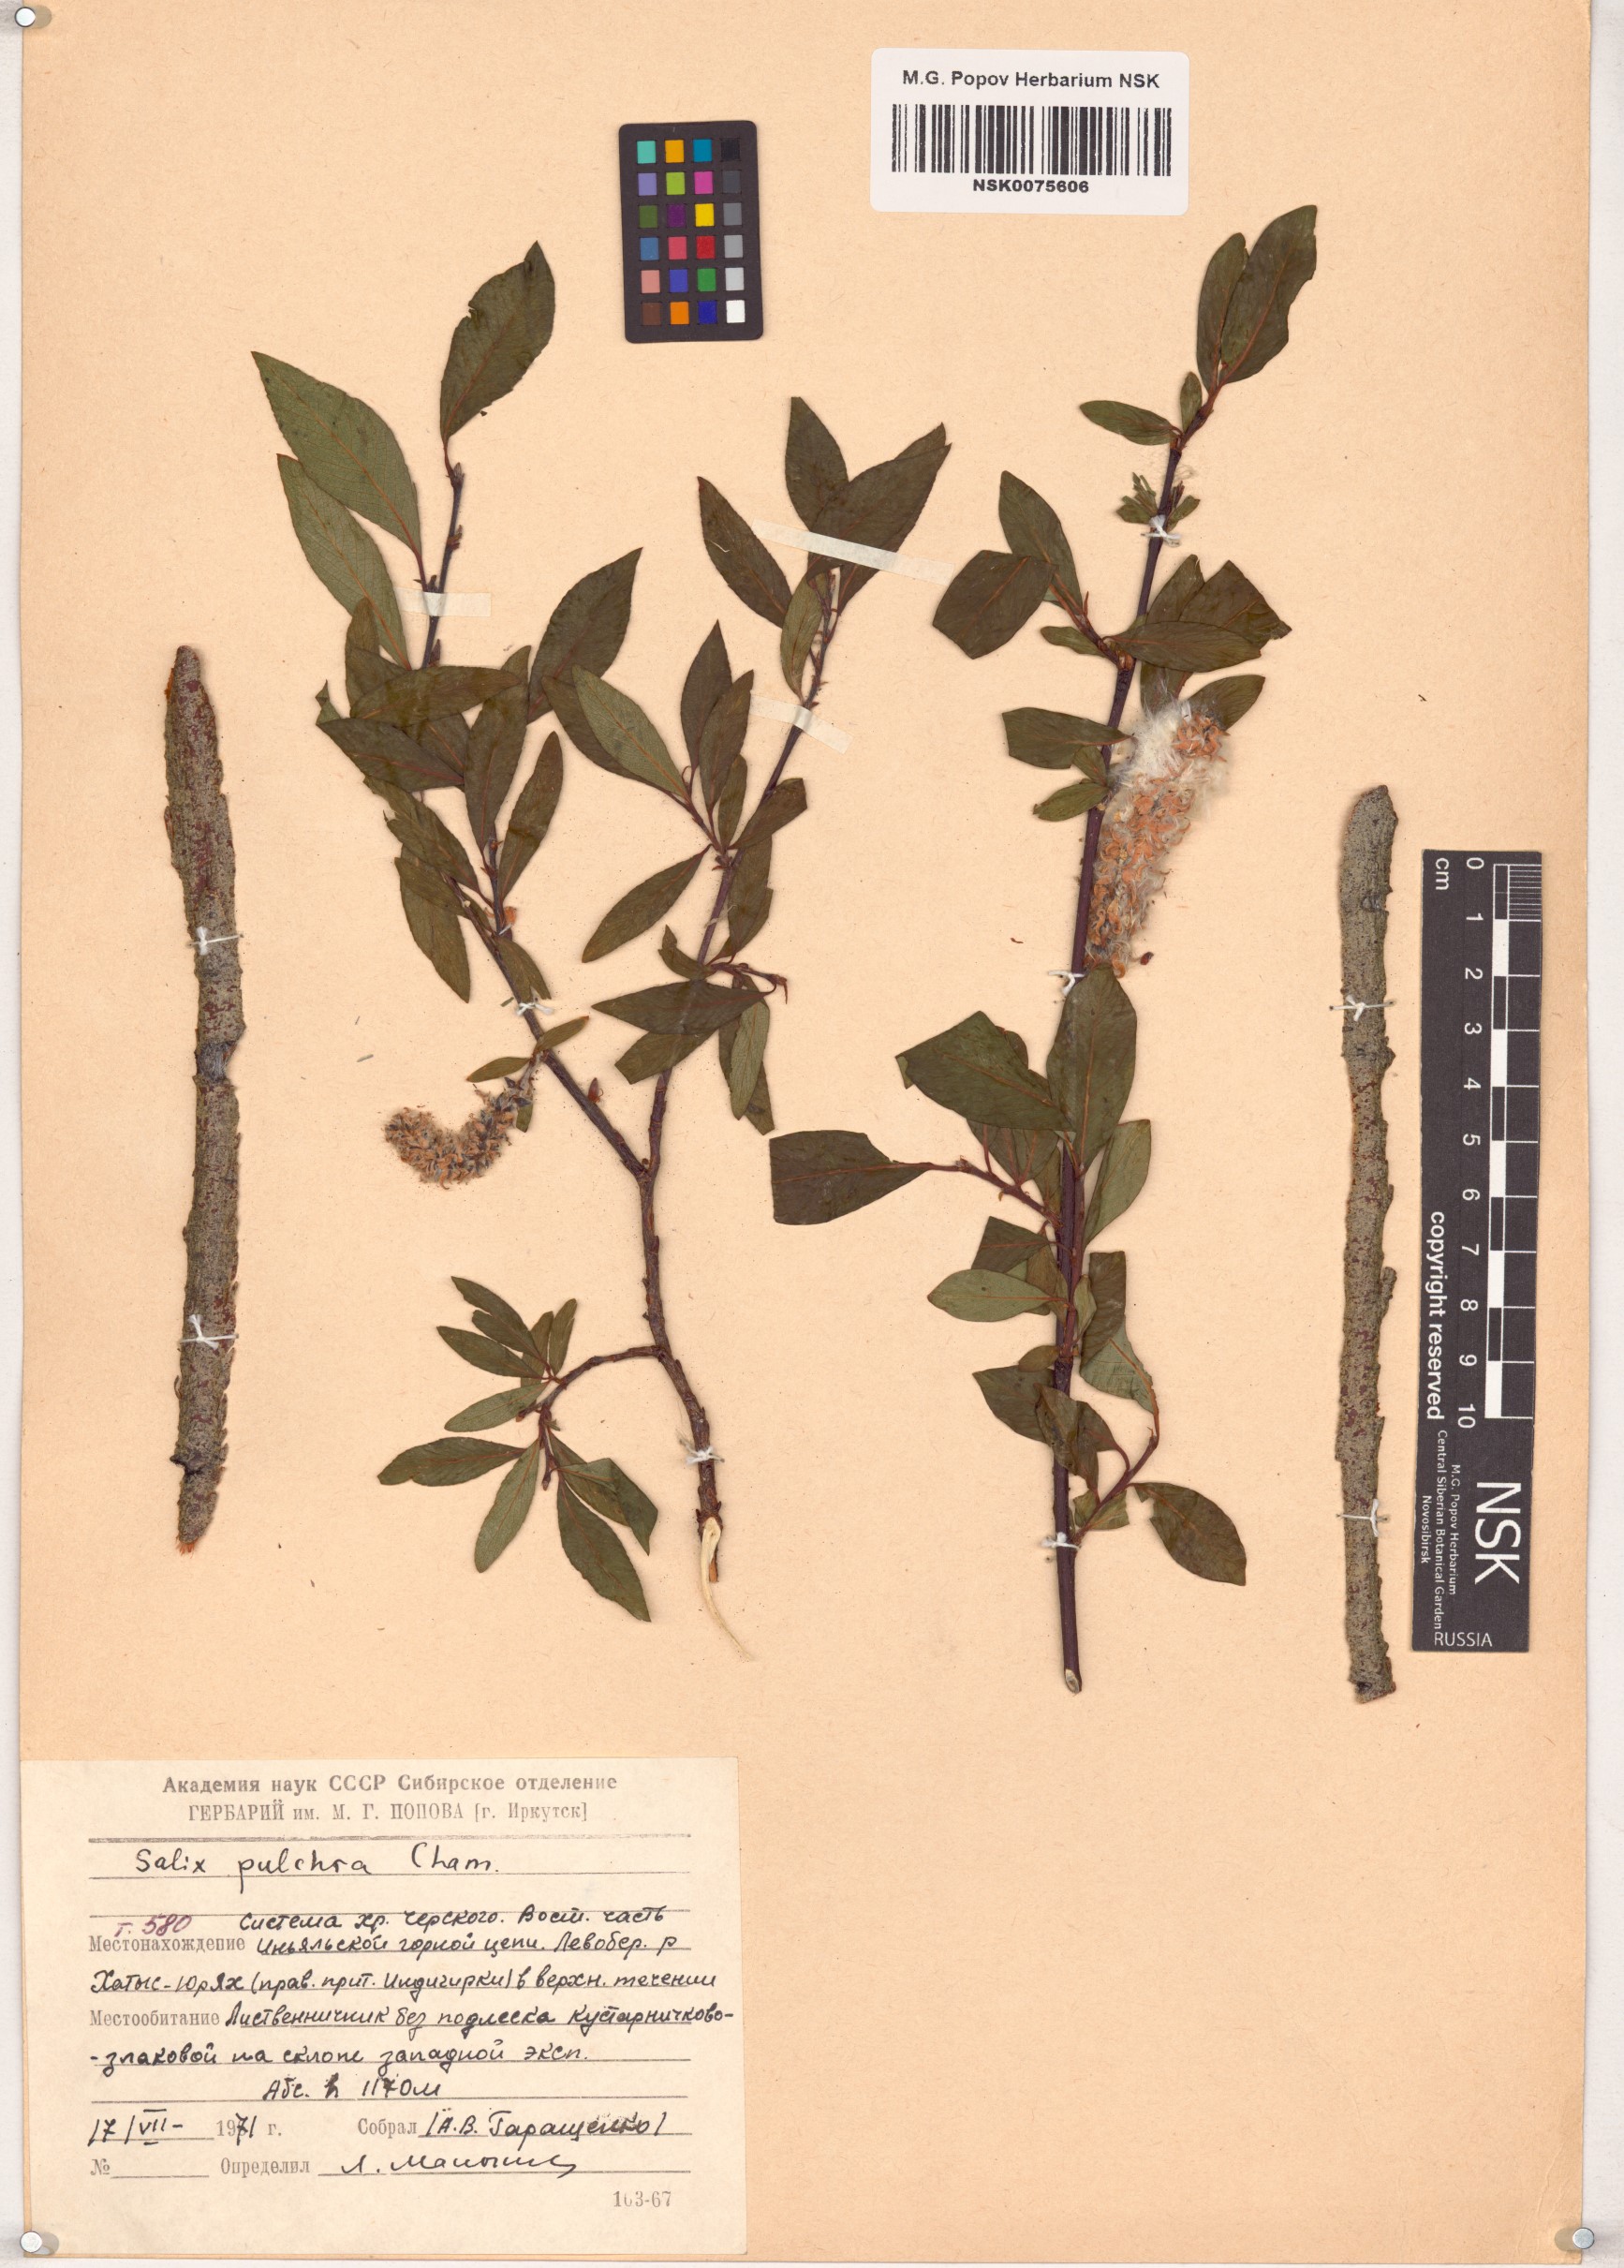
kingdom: Plantae
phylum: Tracheophyta
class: Magnoliopsida
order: Malpighiales
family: Salicaceae
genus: Salix
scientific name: Salix pulchra
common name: Diamond-leaved willow
